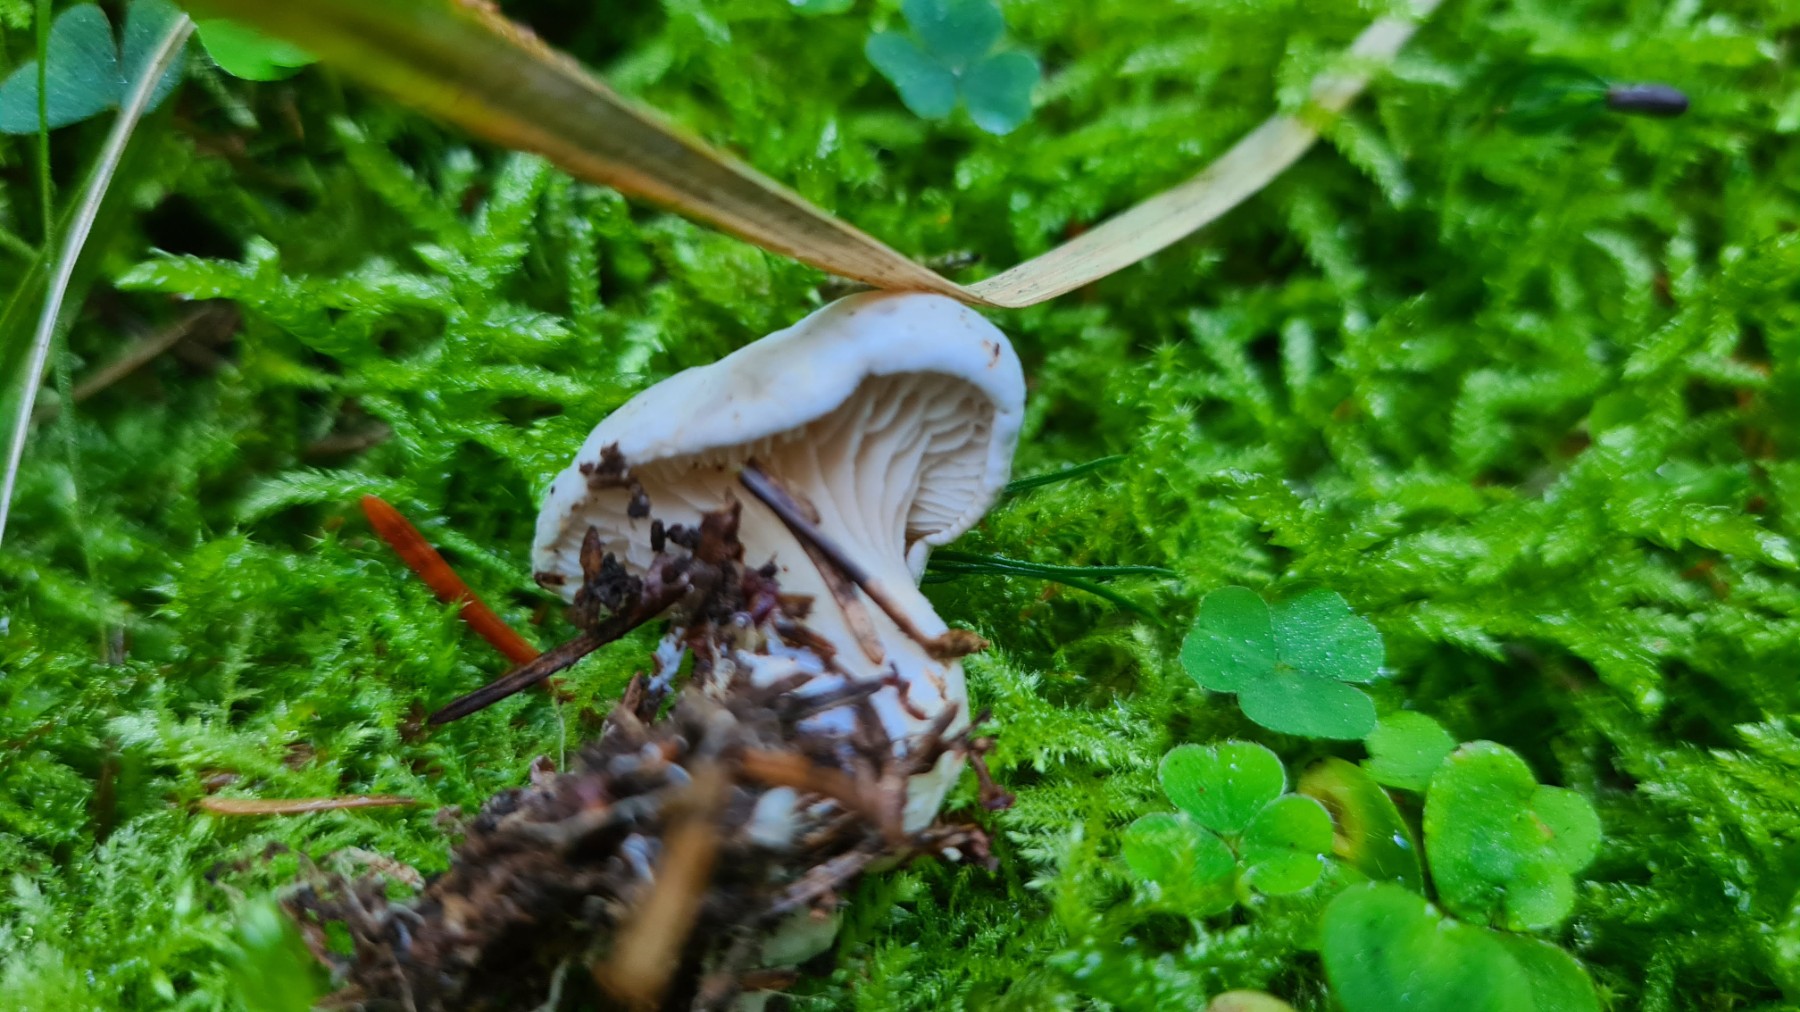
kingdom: Fungi
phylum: Basidiomycota
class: Agaricomycetes
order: Agaricales
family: Entolomataceae
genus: Clitopilus
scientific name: Clitopilus prunulus
